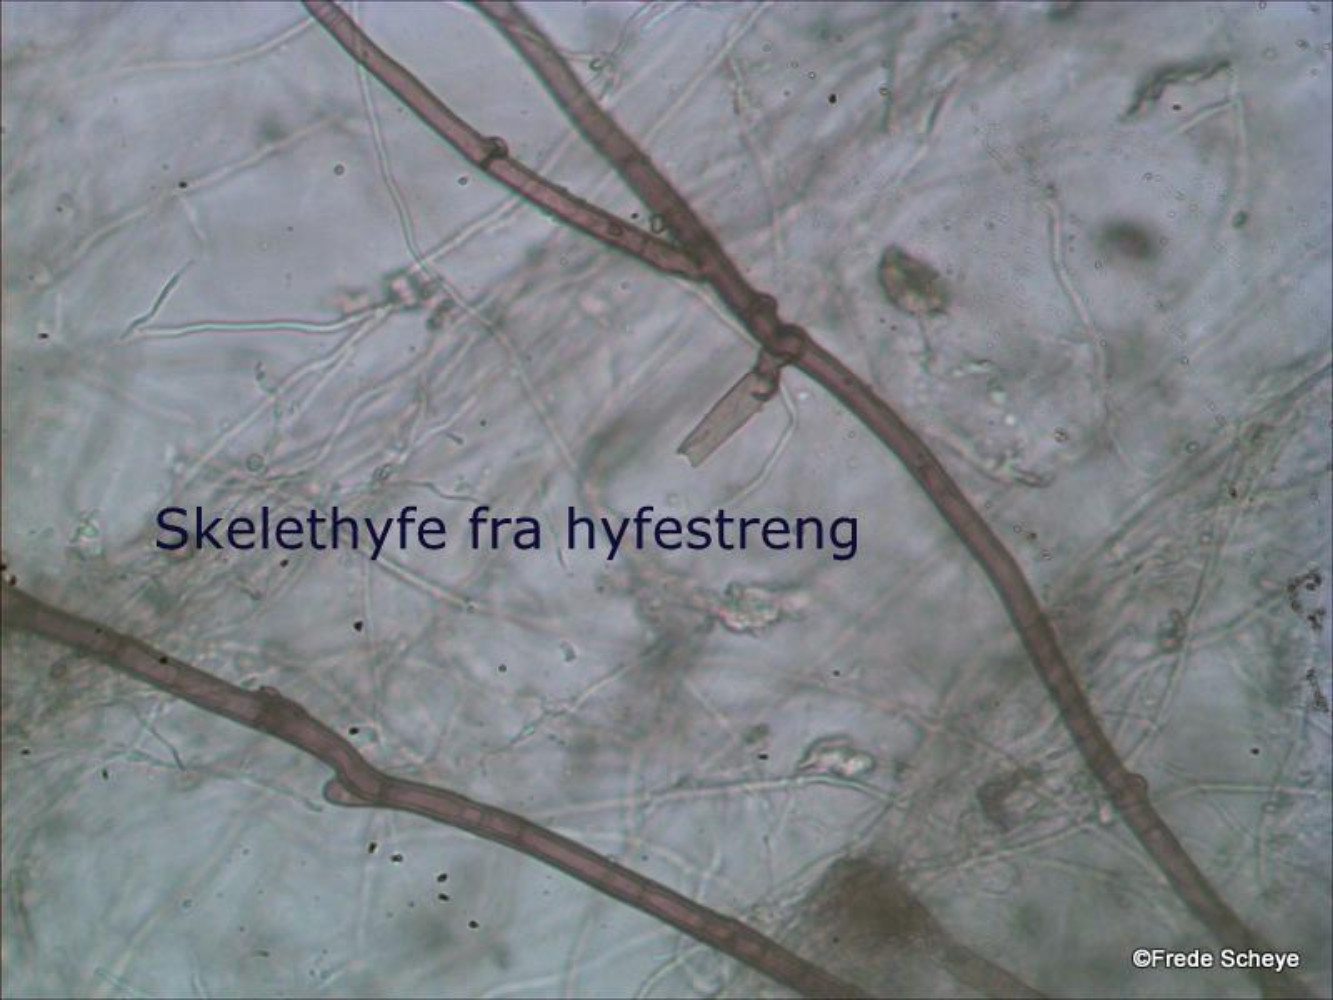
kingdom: Fungi
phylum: Basidiomycota
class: Agaricomycetes
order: Gomphales
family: Gomphaceae
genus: Ramaria
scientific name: Ramaria stricta
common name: rank koralsvamp
